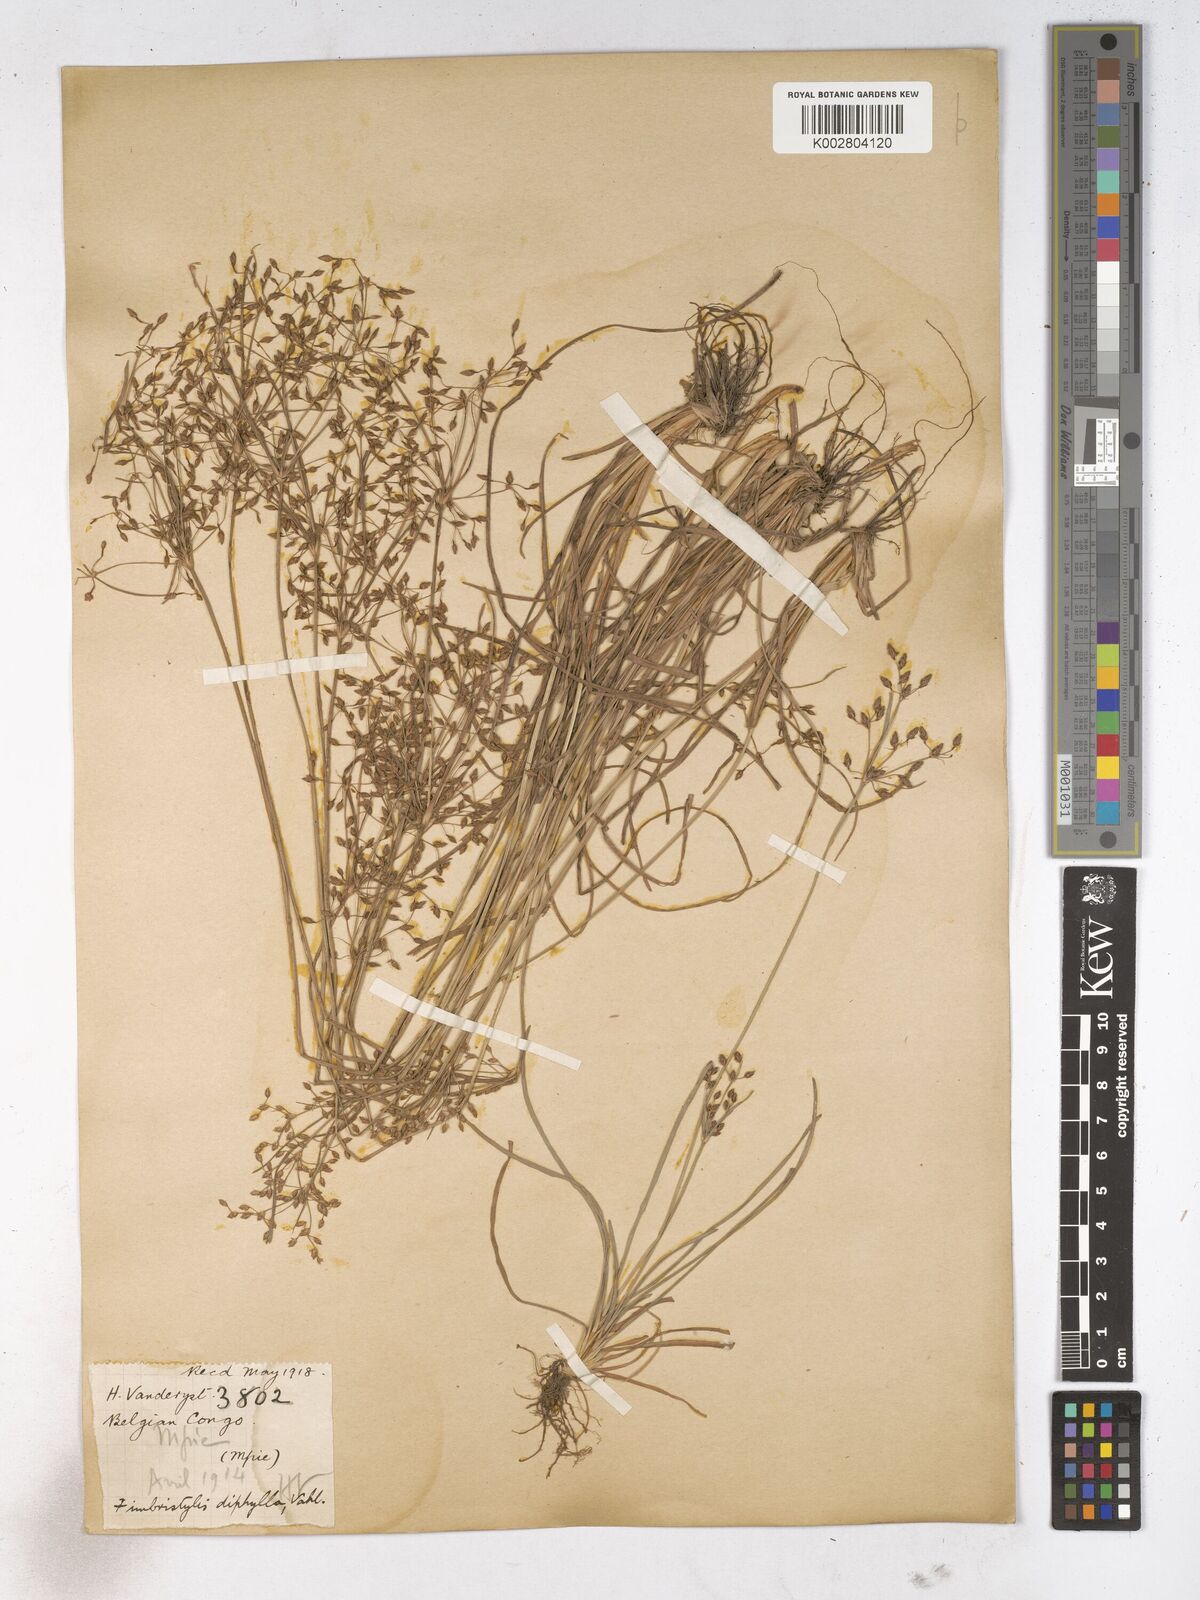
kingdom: Plantae
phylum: Tracheophyta
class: Liliopsida
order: Poales
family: Cyperaceae
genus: Fimbristylis
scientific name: Fimbristylis dichotoma
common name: Forked fimbry
